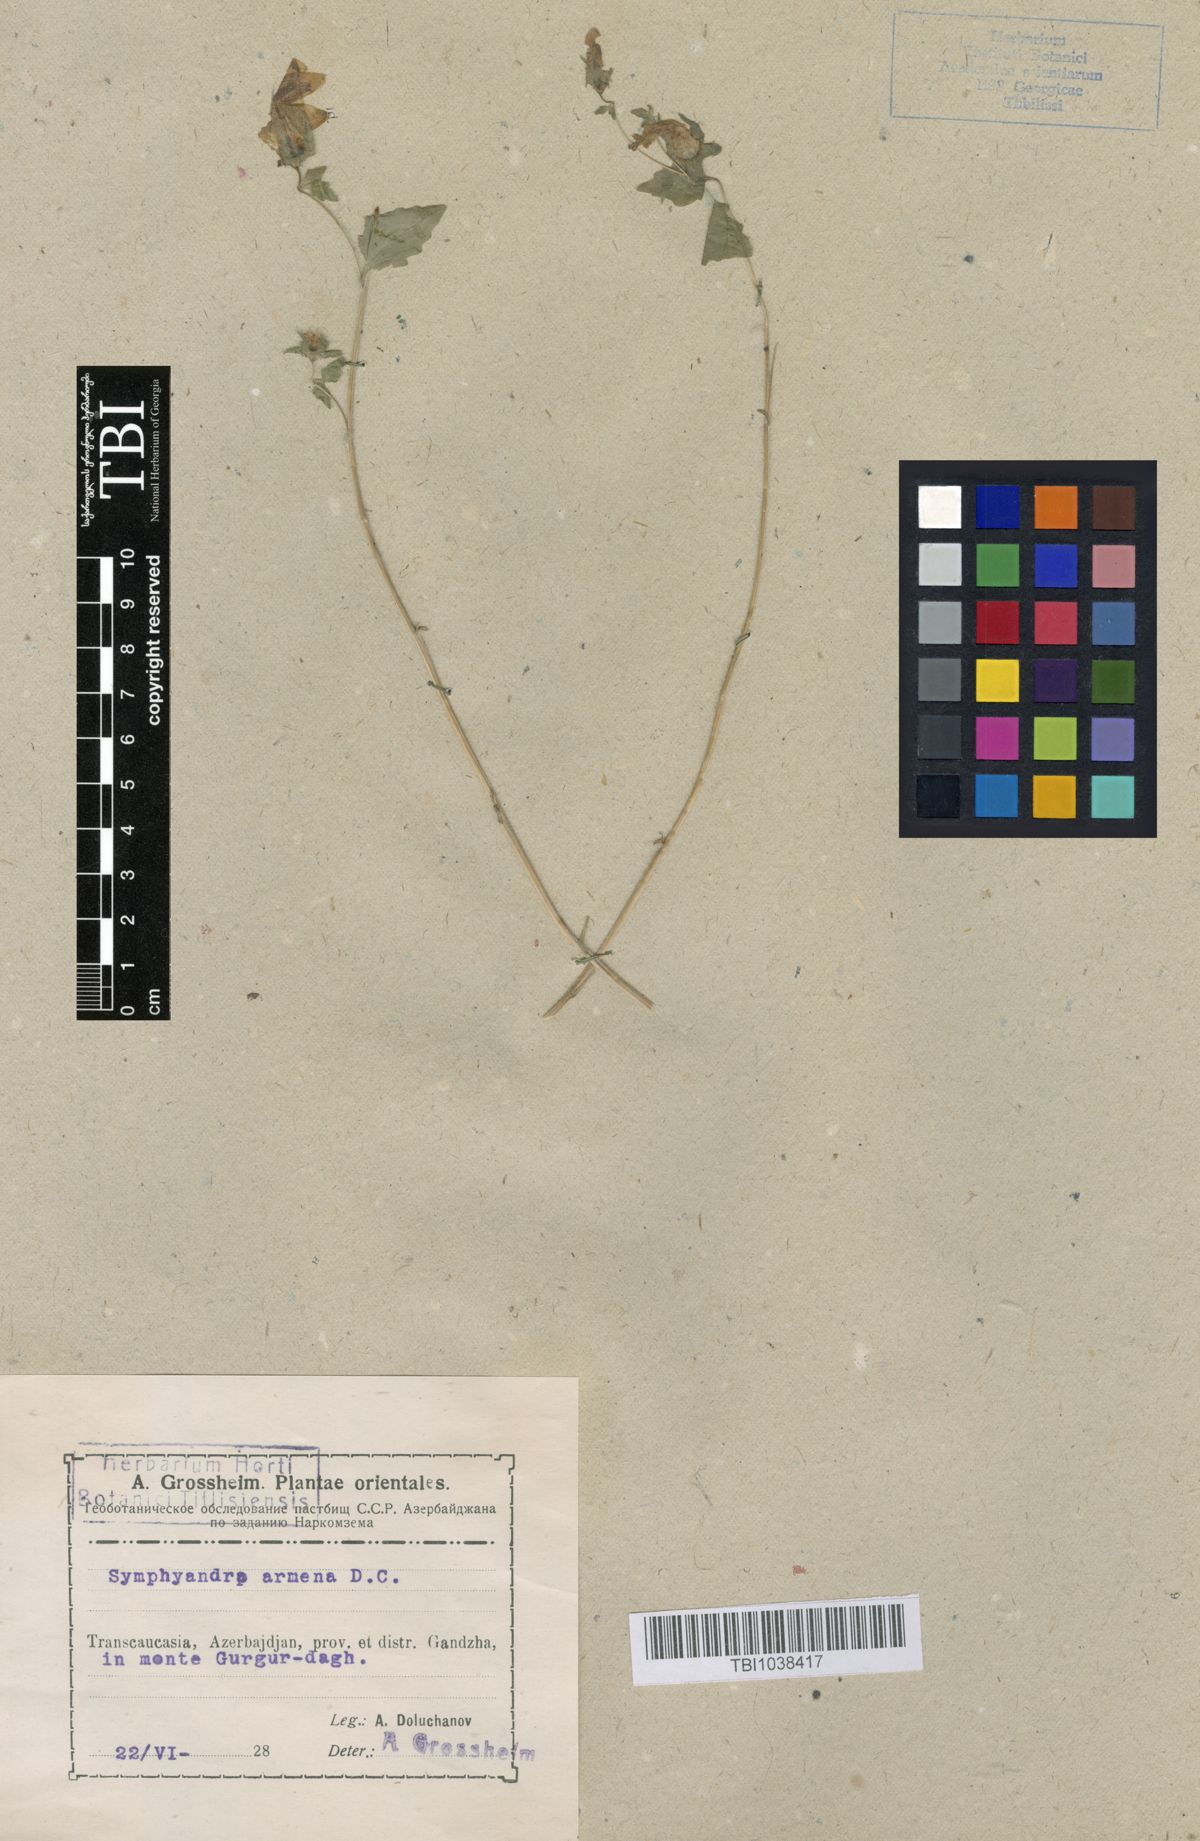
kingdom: Plantae
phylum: Tracheophyta
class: Magnoliopsida
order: Asterales
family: Campanulaceae
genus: Campanula
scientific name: Campanula armena
